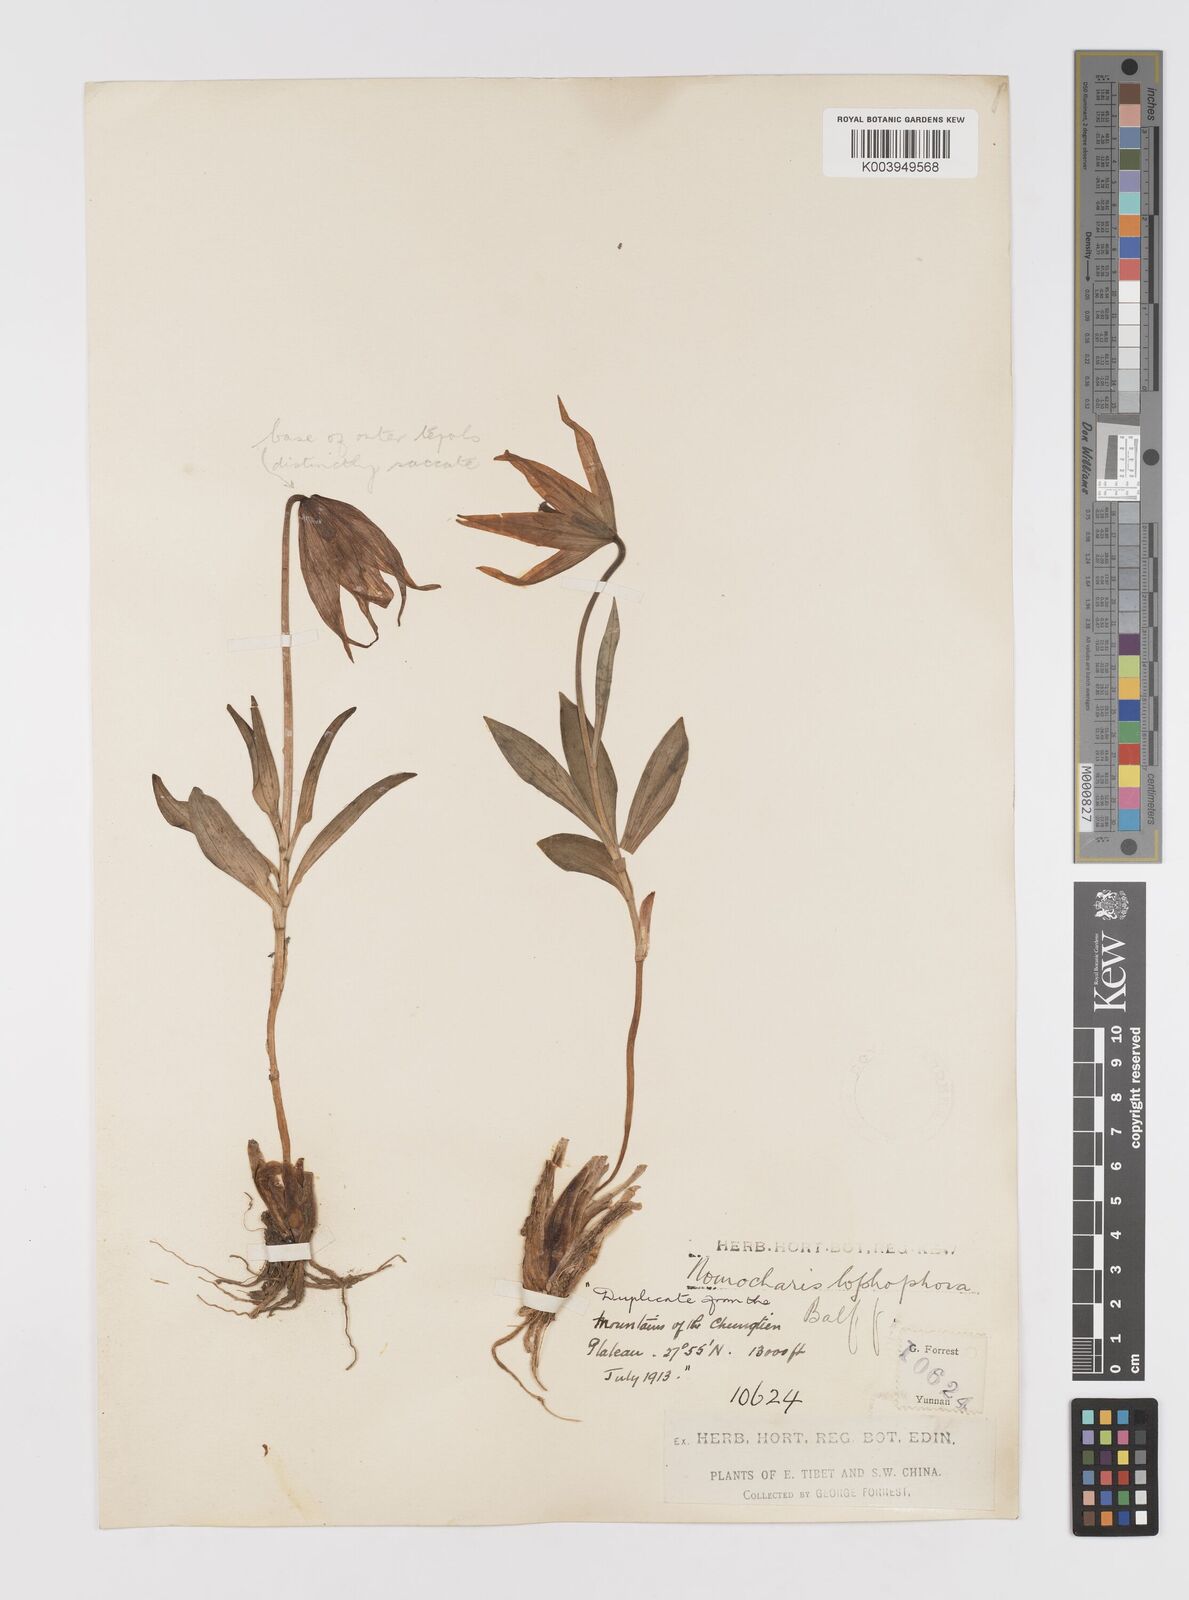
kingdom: Plantae
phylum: Tracheophyta
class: Liliopsida
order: Liliales
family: Liliaceae
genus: Lilium
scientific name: Lilium lophophorum
